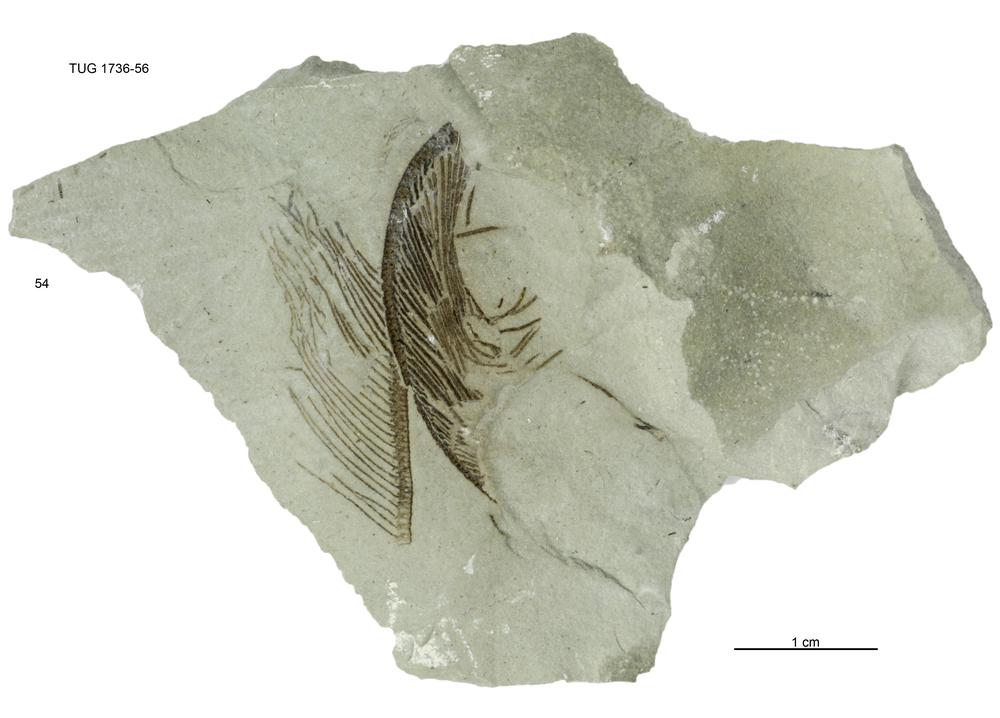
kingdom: Animalia
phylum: Echinodermata
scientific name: Echinodermata
